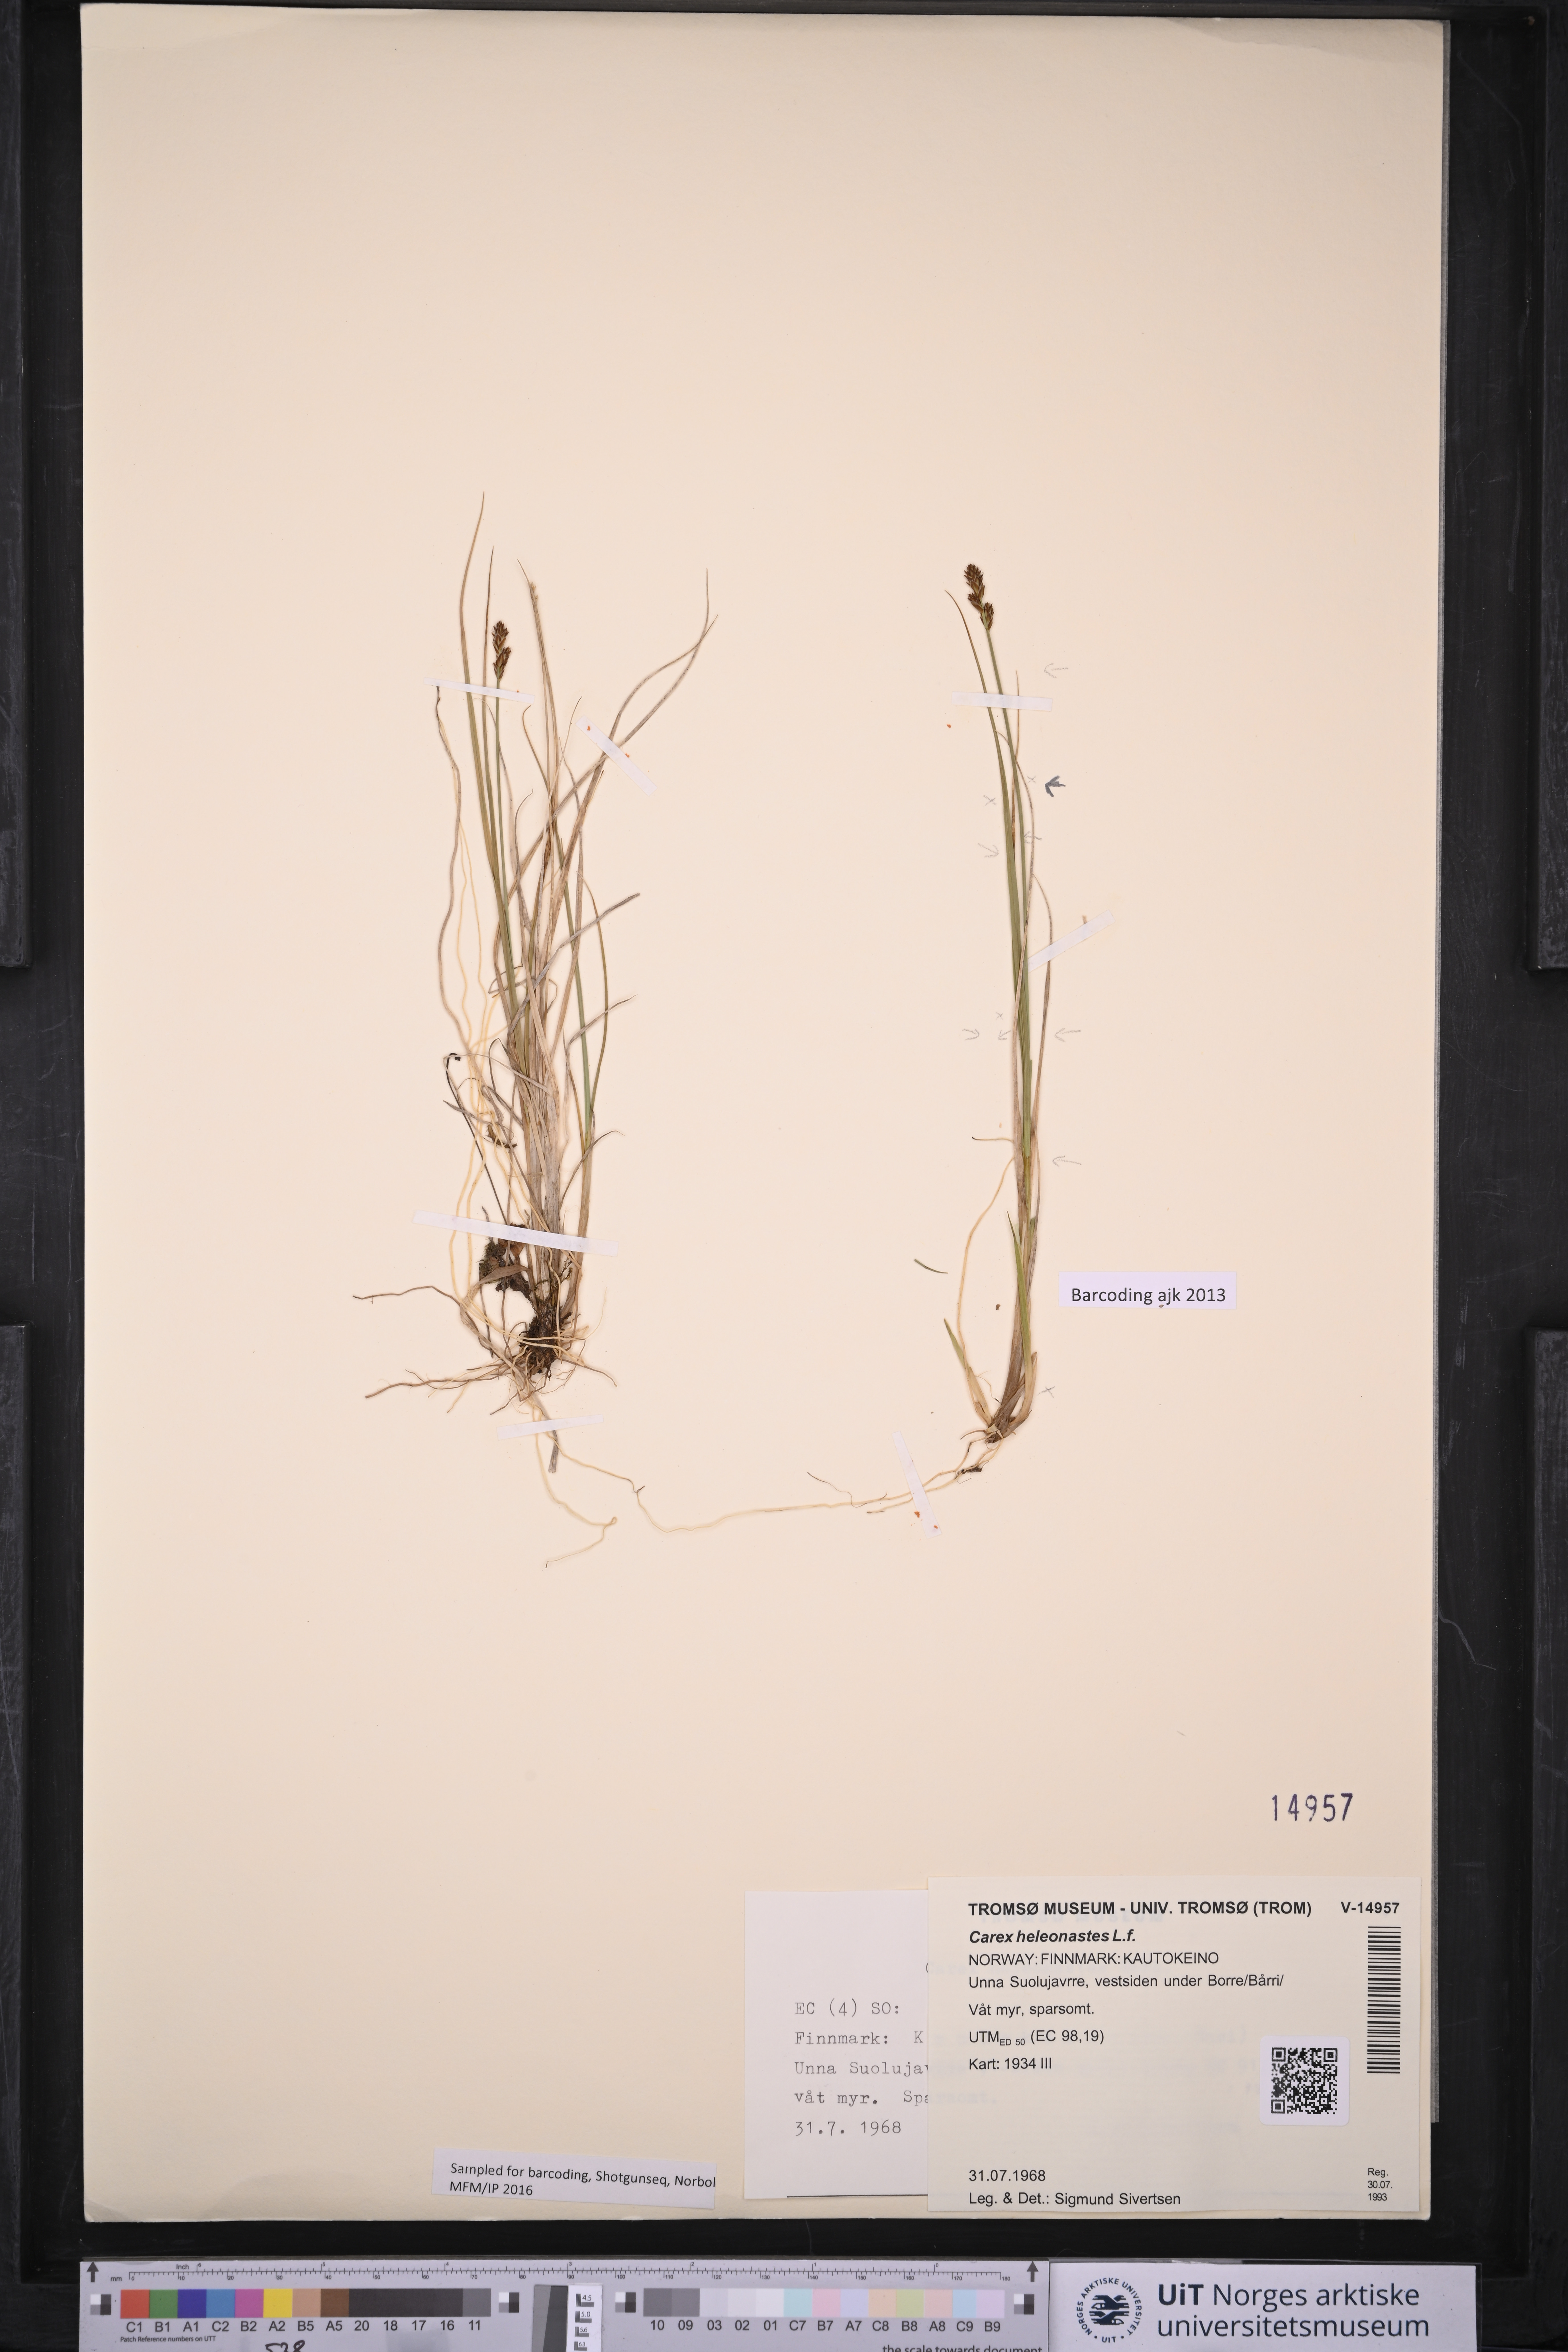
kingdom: Plantae
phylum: Tracheophyta
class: Liliopsida
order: Poales
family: Cyperaceae
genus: Carex
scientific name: Carex heleonastes
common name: Hudson bay sedge
